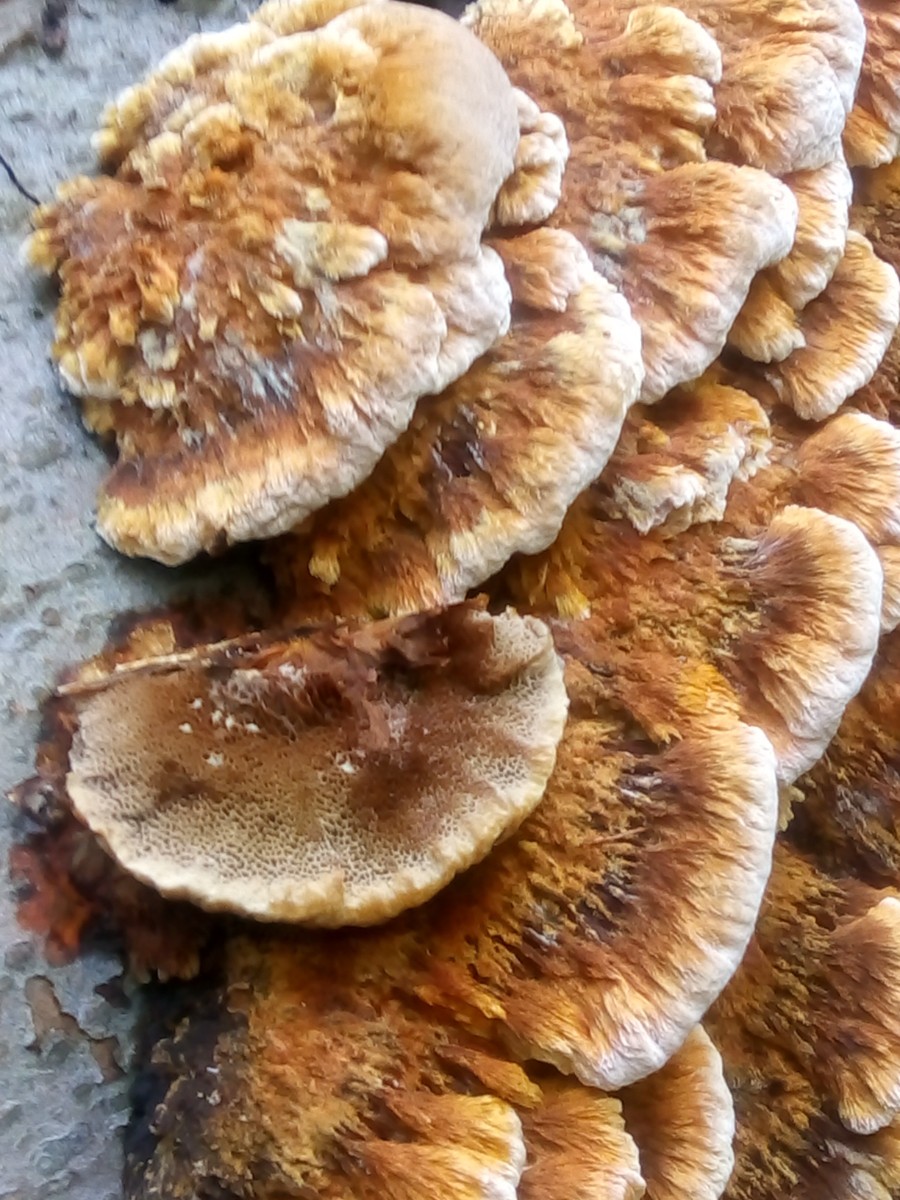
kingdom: Fungi
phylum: Basidiomycota
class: Agaricomycetes
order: Hymenochaetales
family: Hymenochaetaceae
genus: Mensularia
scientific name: Mensularia nodulosa
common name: bøge-spejlporesvamp
